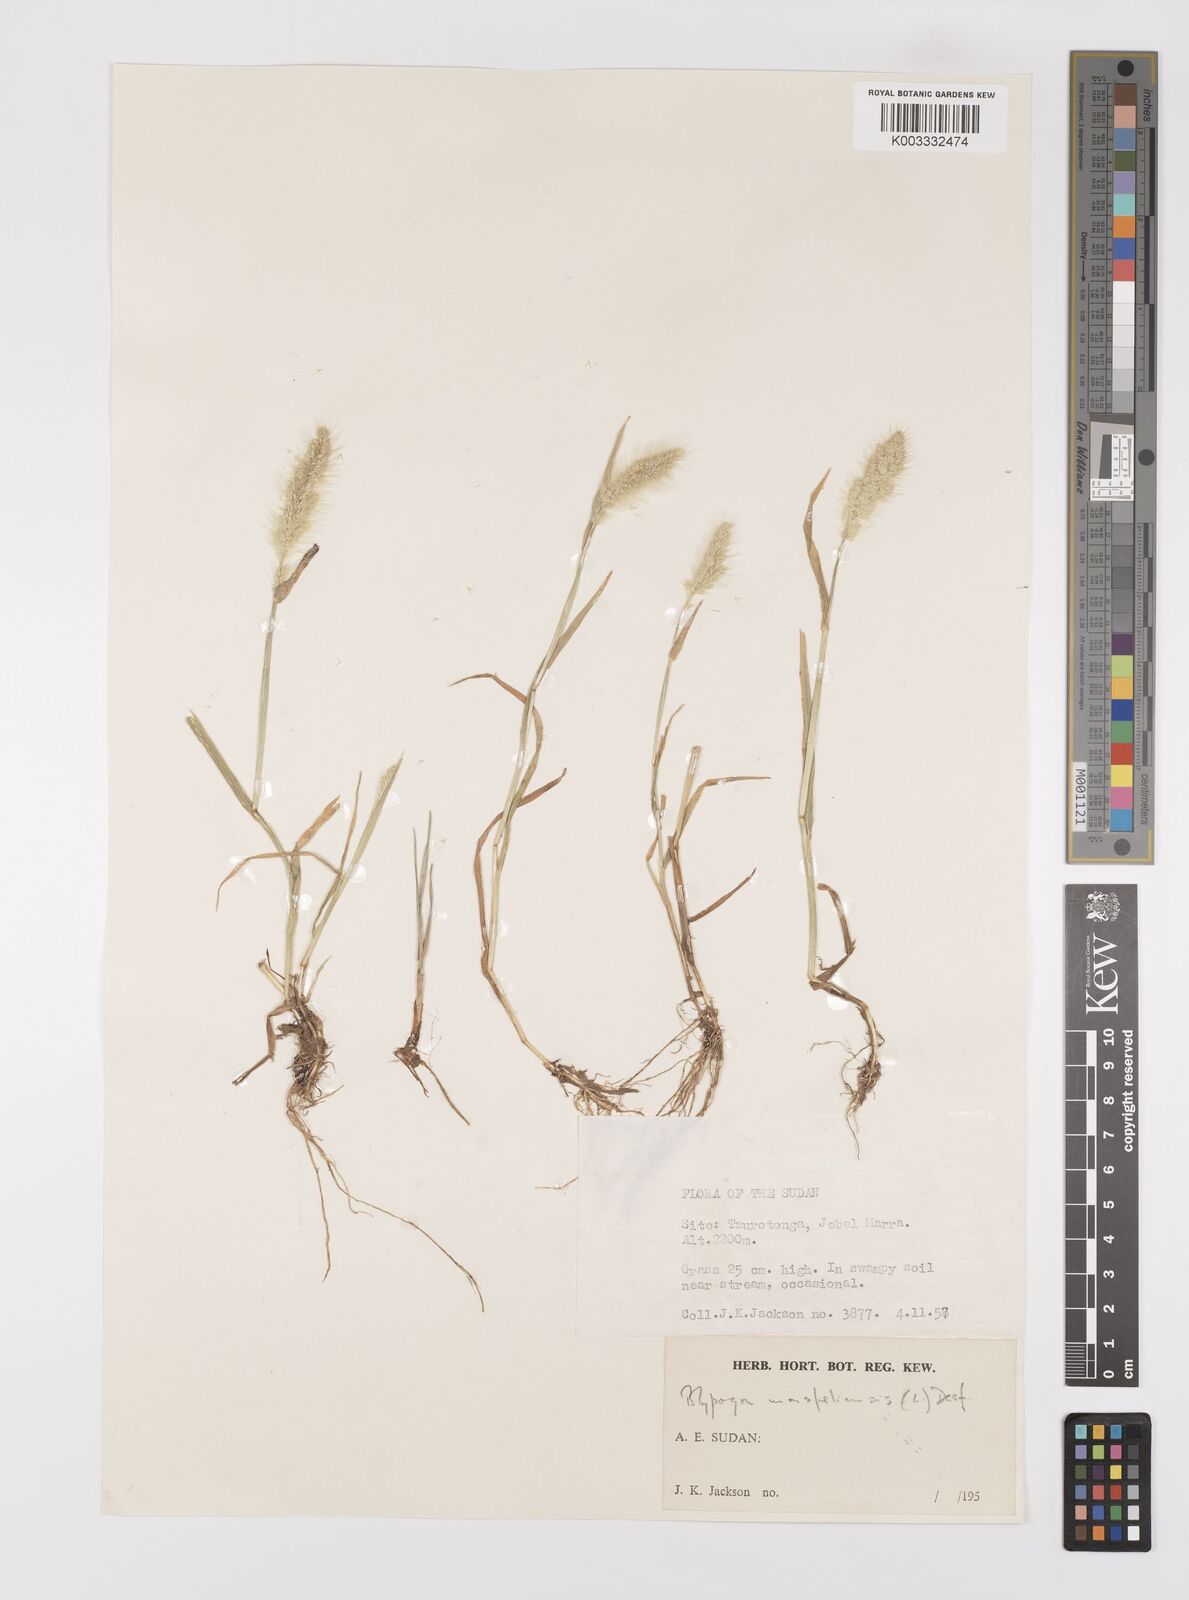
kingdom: Plantae
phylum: Tracheophyta
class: Liliopsida
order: Poales
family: Poaceae
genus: Polypogon
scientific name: Polypogon monspeliensis
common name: Annual rabbitsfoot grass
